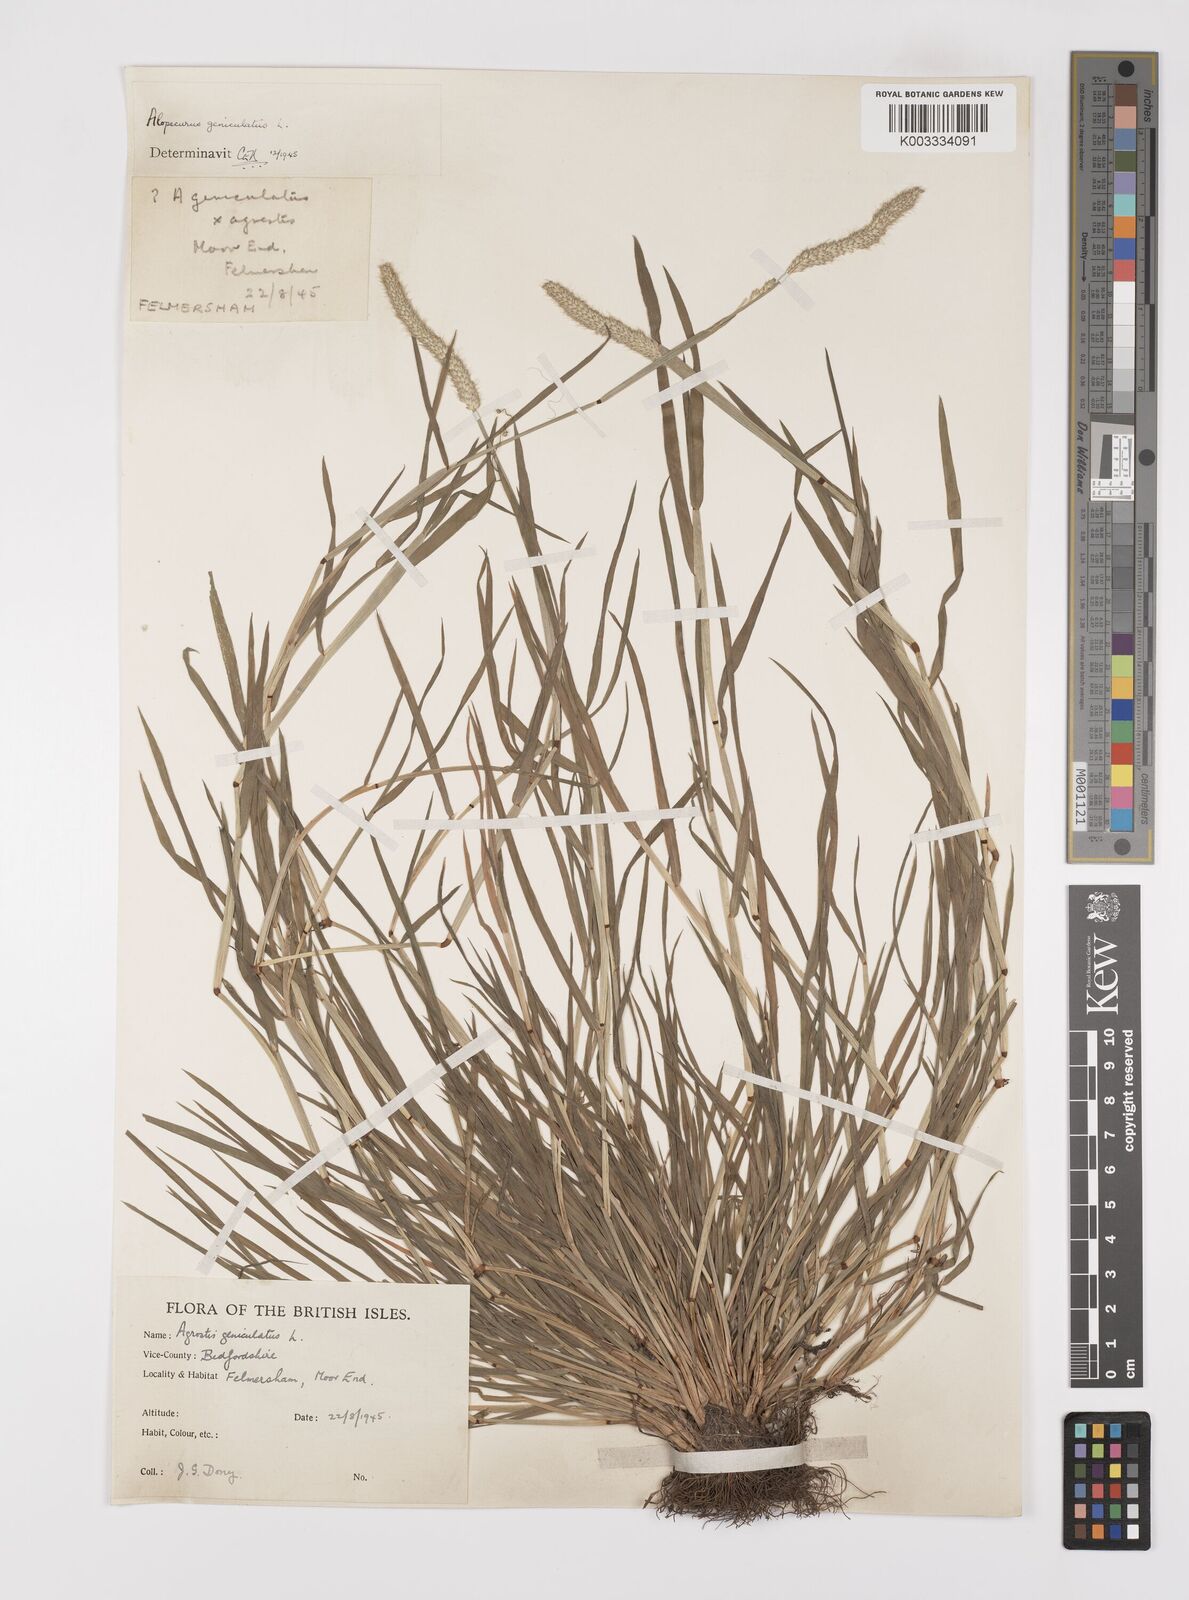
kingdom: Plantae
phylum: Tracheophyta
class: Liliopsida
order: Poales
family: Poaceae
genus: Alopecurus
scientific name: Alopecurus geniculatus
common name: Water foxtail
